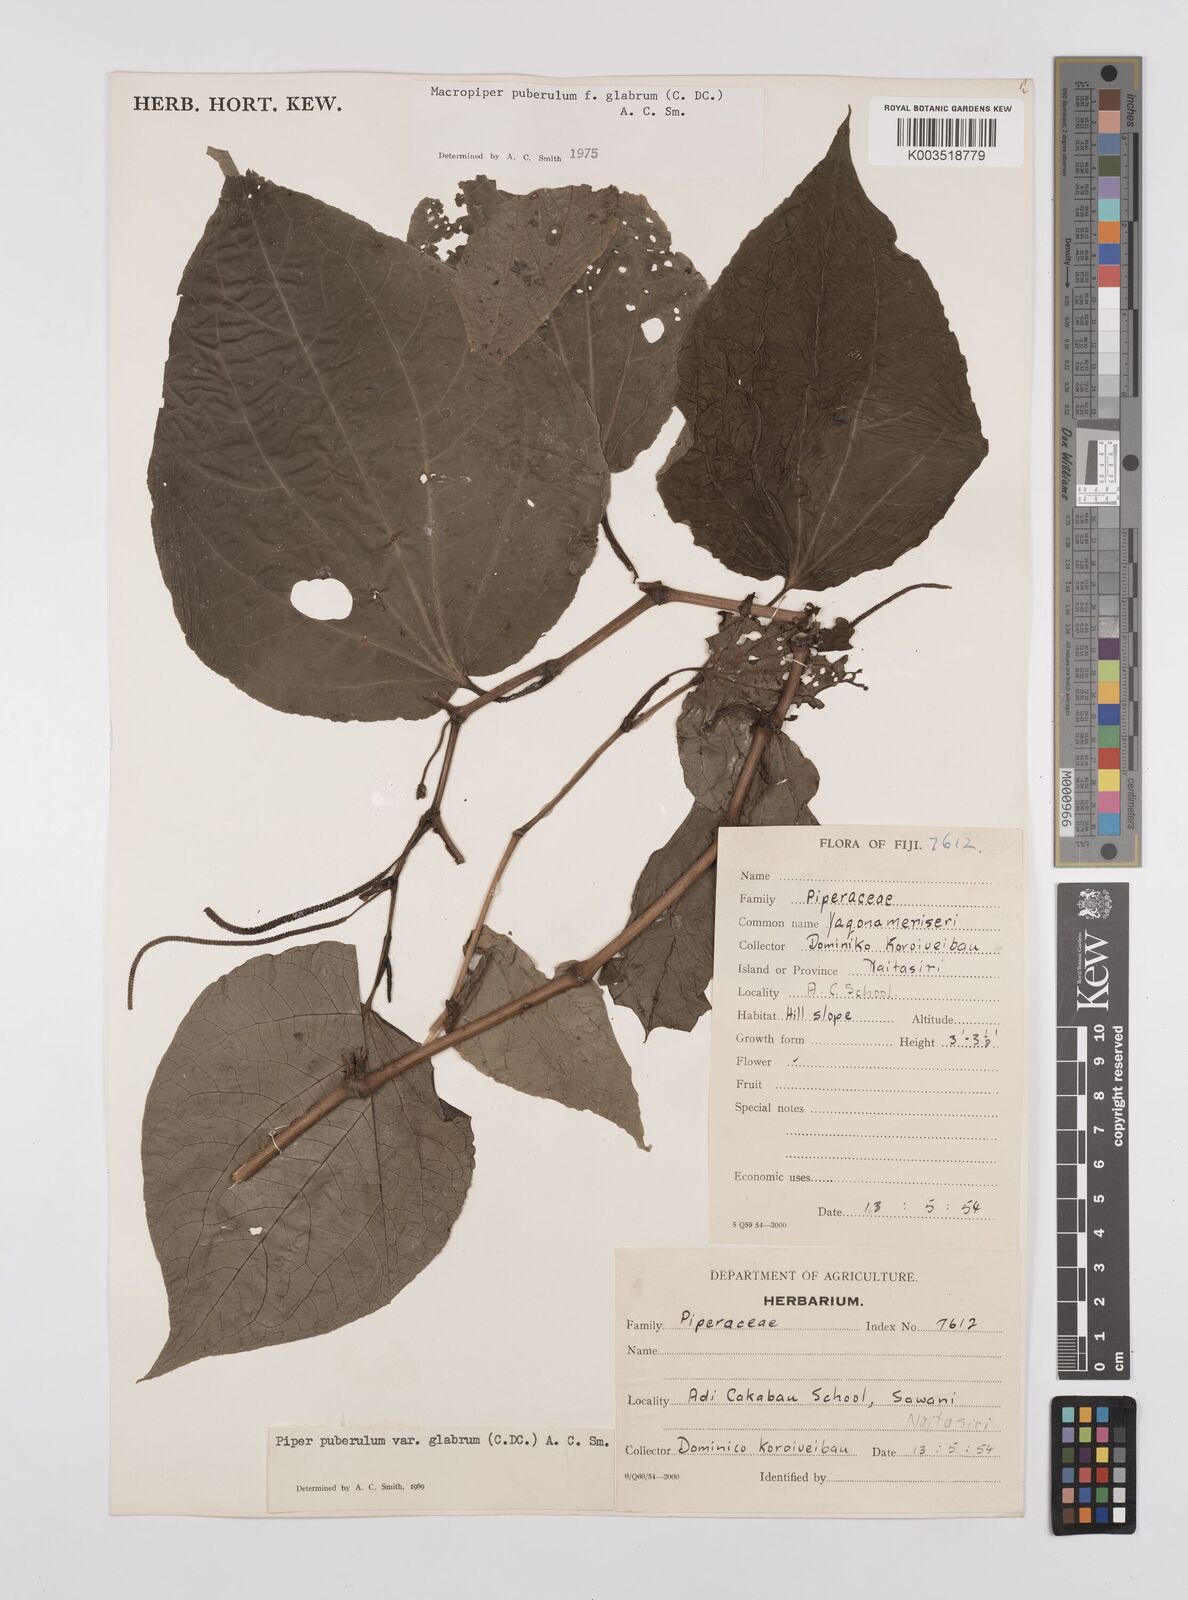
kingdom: Plantae
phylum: Tracheophyta
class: Magnoliopsida
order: Piperales
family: Piperaceae
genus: Macropiper
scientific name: Macropiper puberulum
